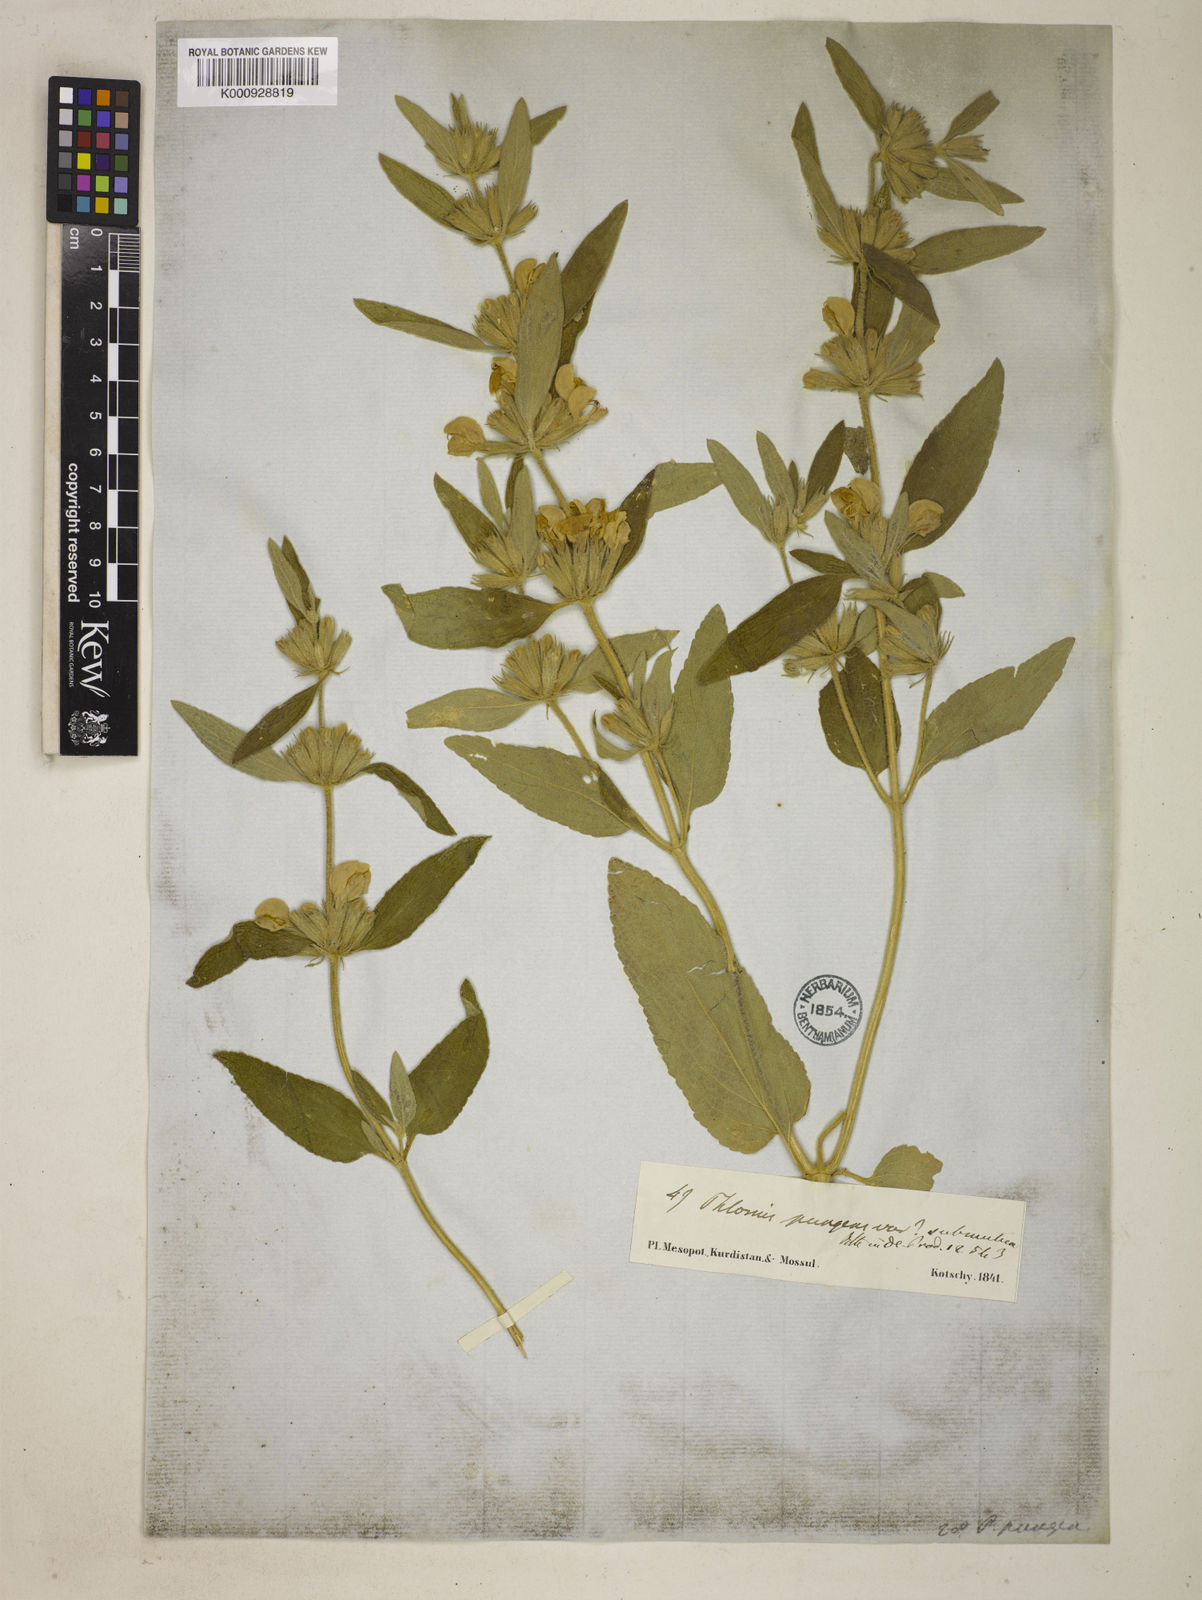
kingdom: Plantae
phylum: Tracheophyta
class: Magnoliopsida
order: Lamiales
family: Lamiaceae
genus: Phlomis
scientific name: Phlomis herba-venti
